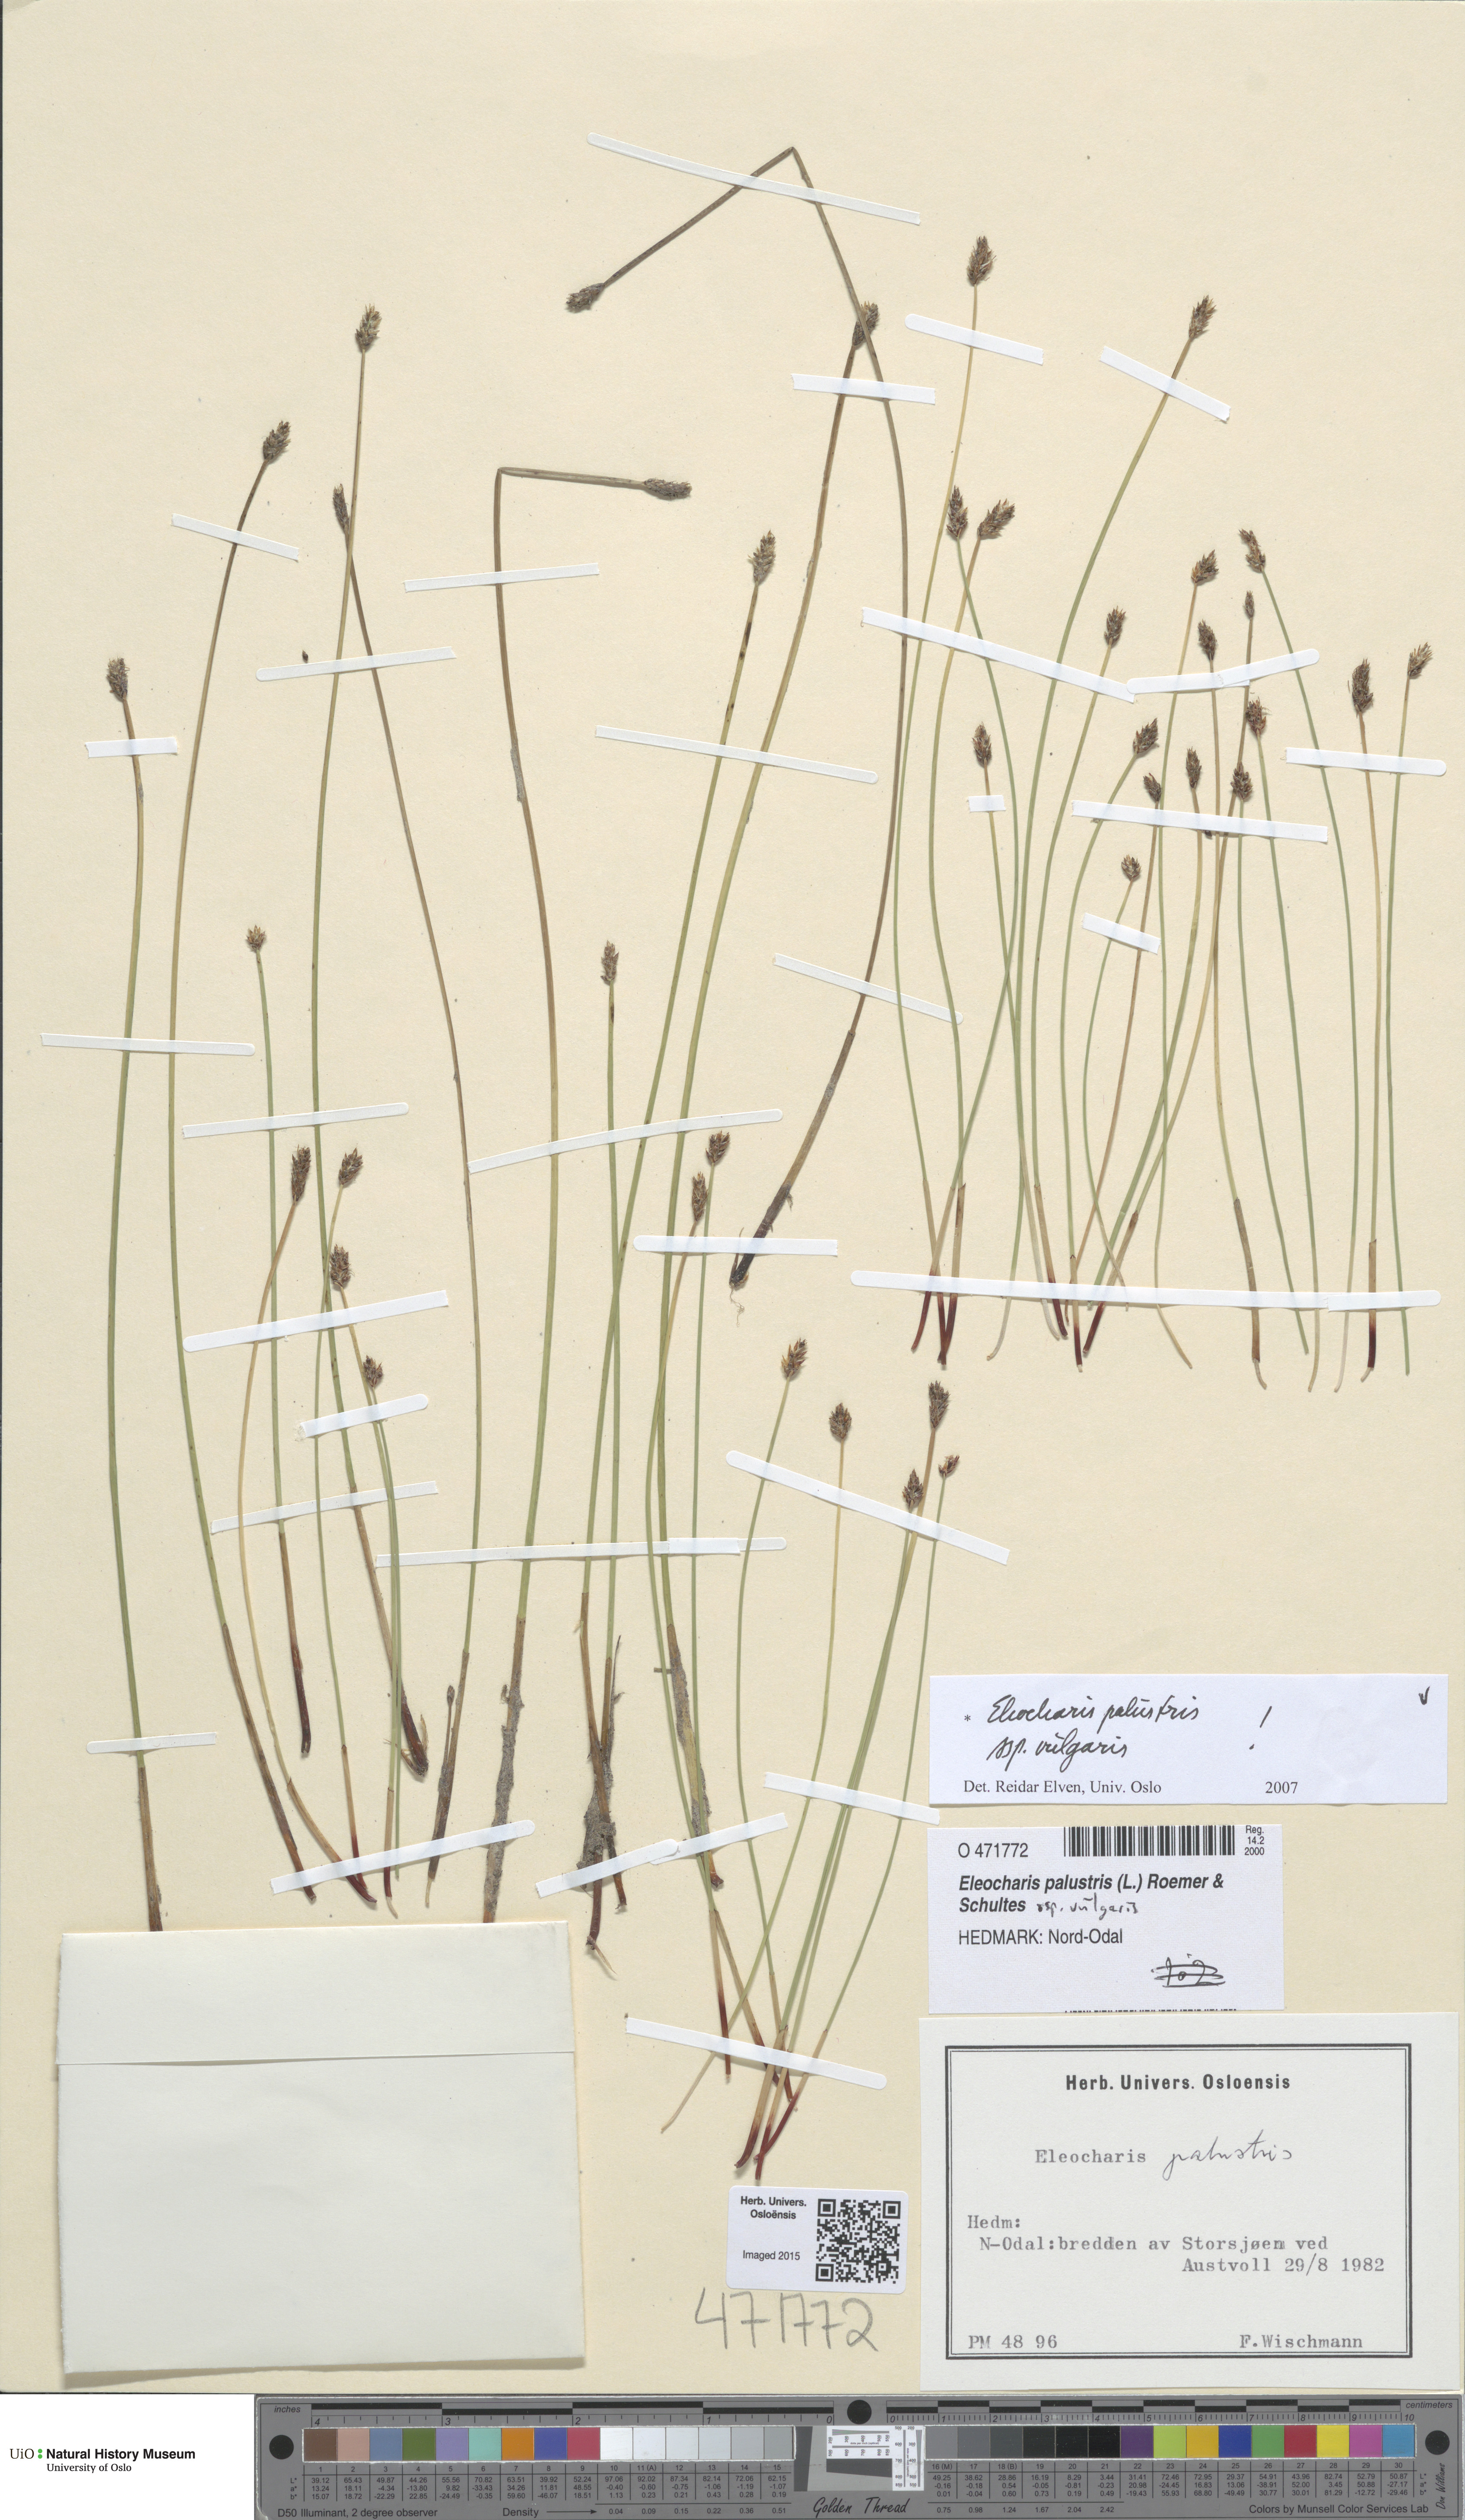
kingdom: Plantae
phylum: Tracheophyta
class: Liliopsida
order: Poales
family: Cyperaceae
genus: Eleocharis
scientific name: Eleocharis palustris
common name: Common spike-rush
